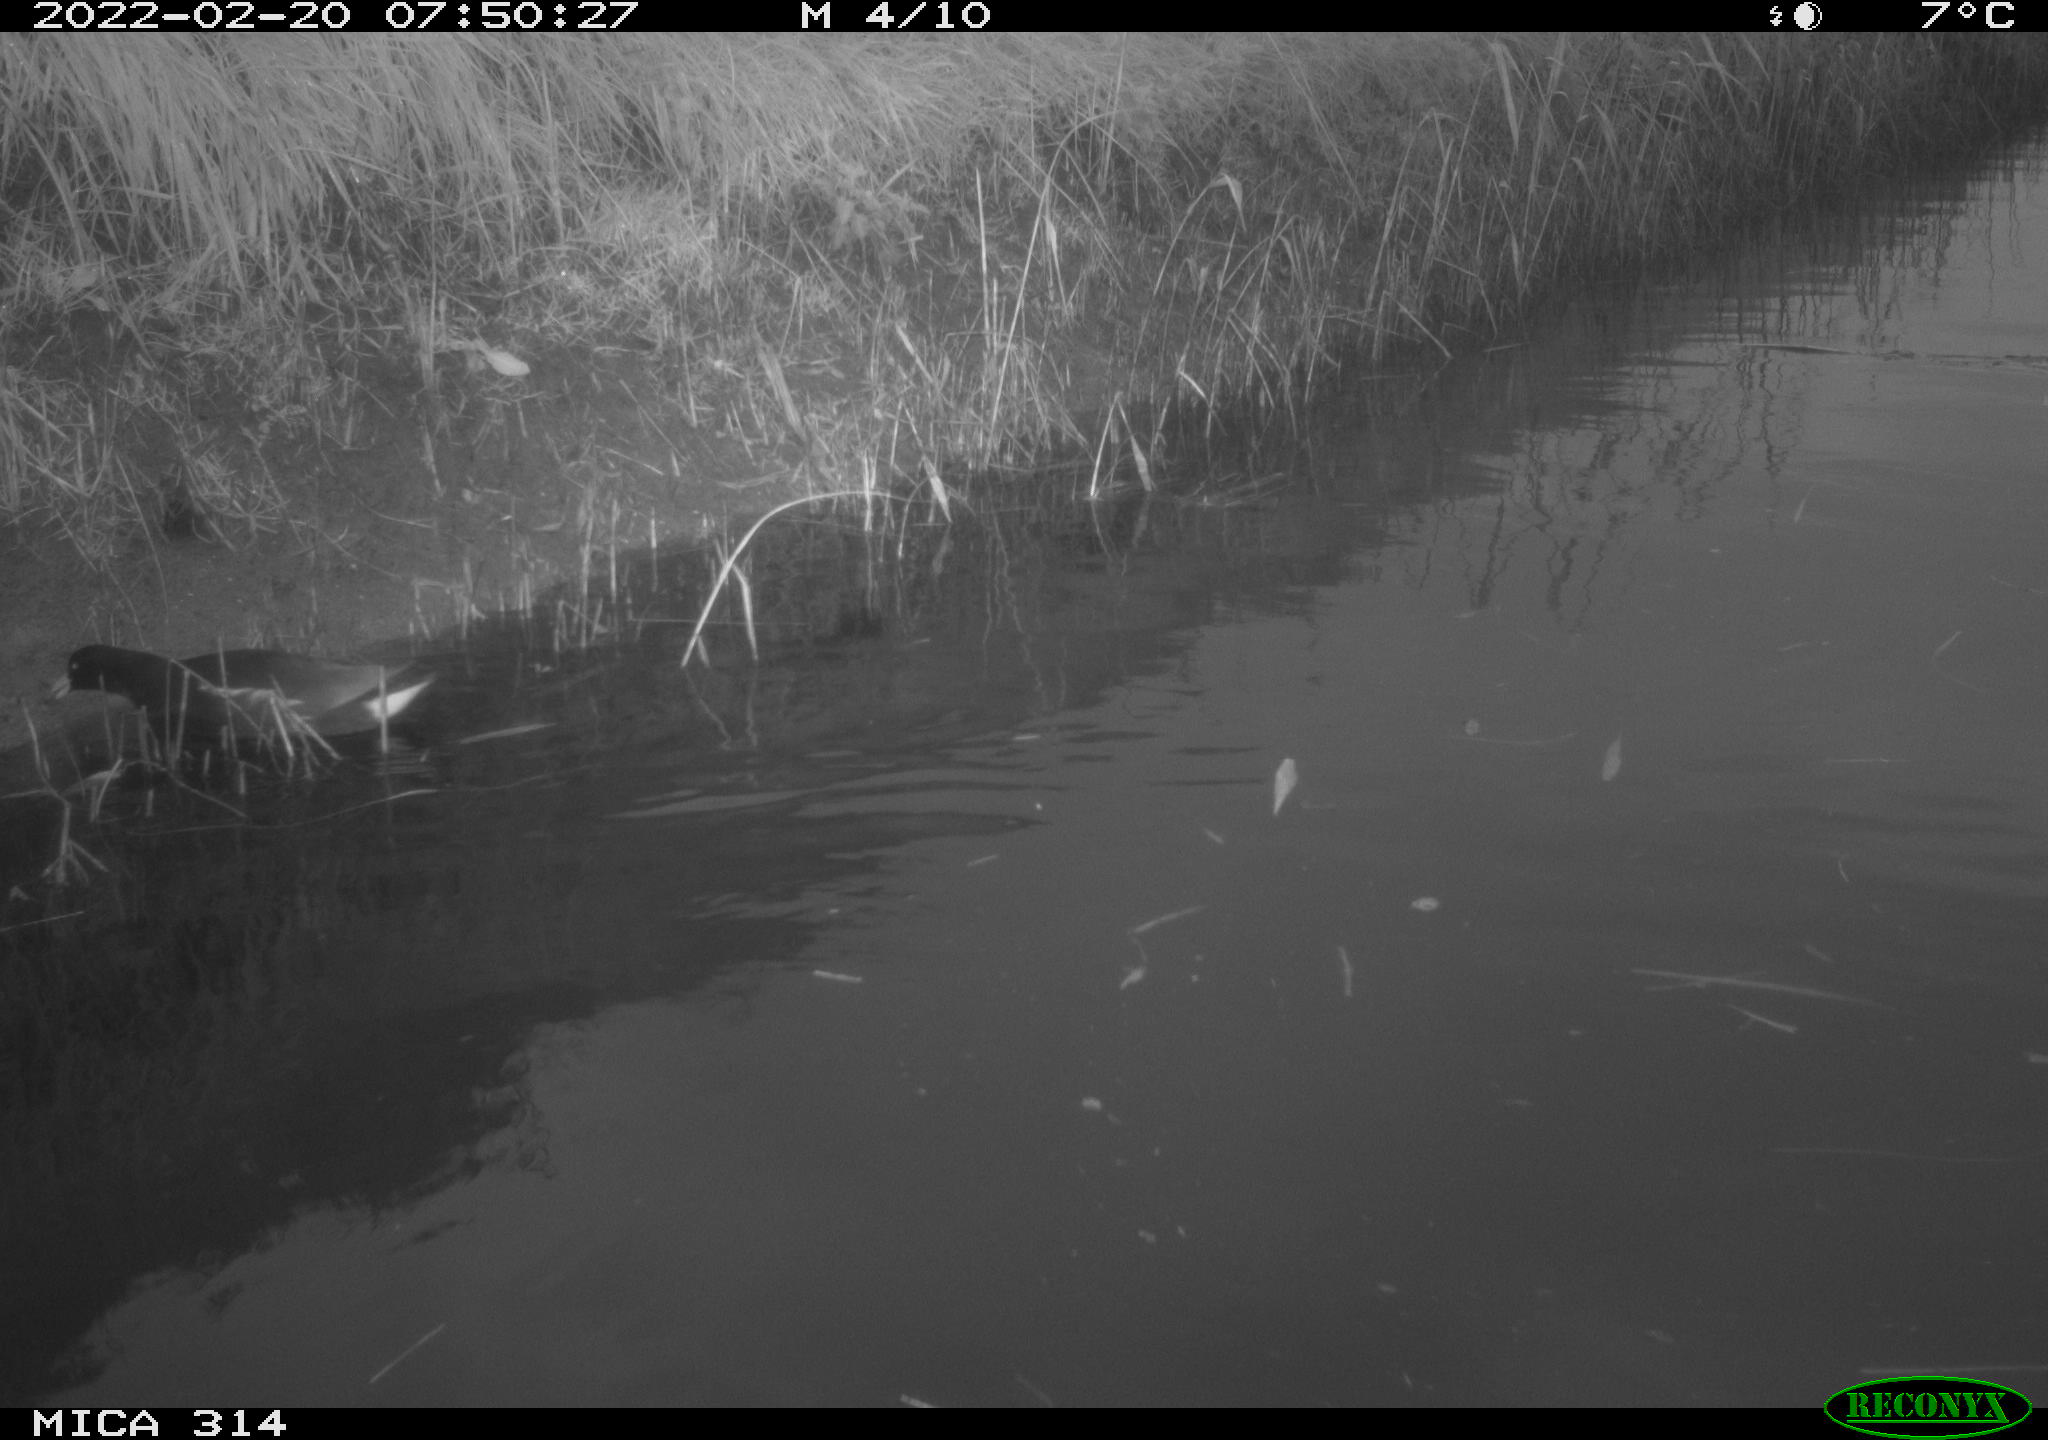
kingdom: Animalia
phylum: Chordata
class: Aves
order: Gruiformes
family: Rallidae
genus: Gallinula
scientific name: Gallinula chloropus
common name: Common moorhen
